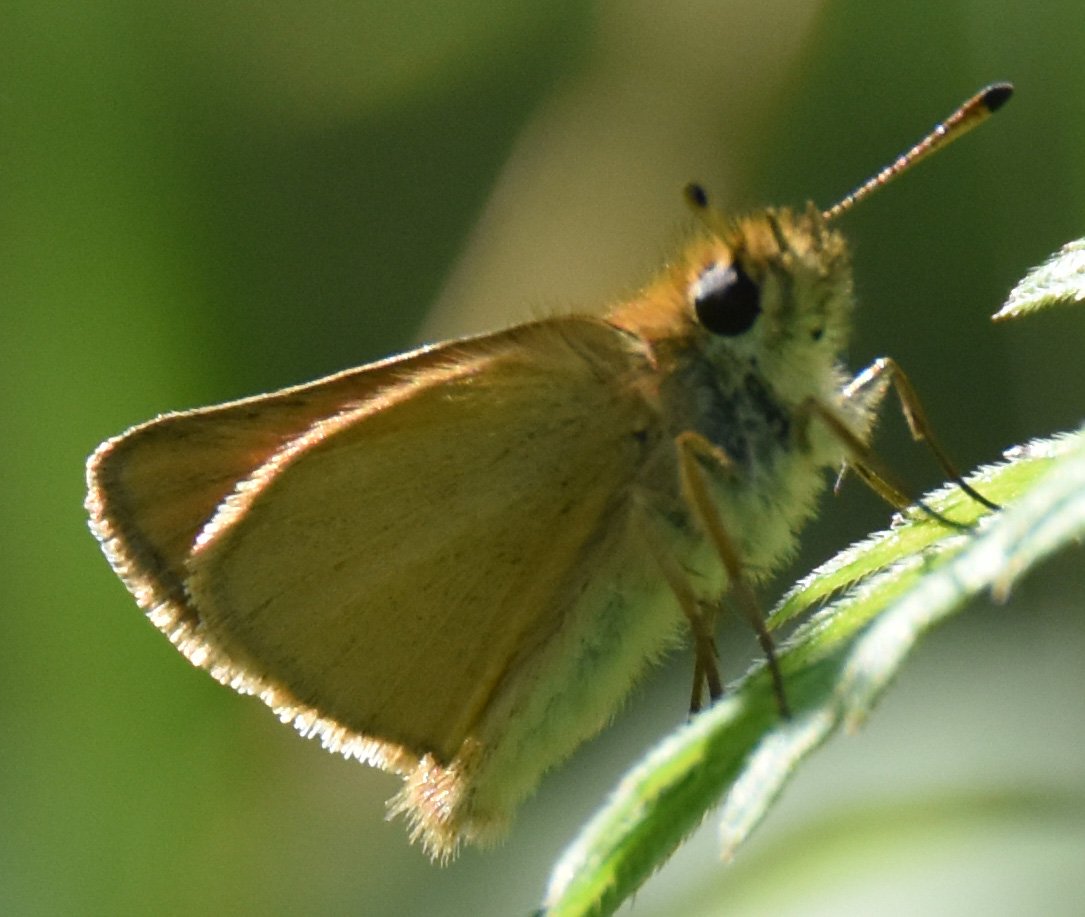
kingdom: Animalia
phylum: Arthropoda
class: Insecta
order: Lepidoptera
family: Hesperiidae
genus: Thymelicus
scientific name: Thymelicus lineola
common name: European Skipper
